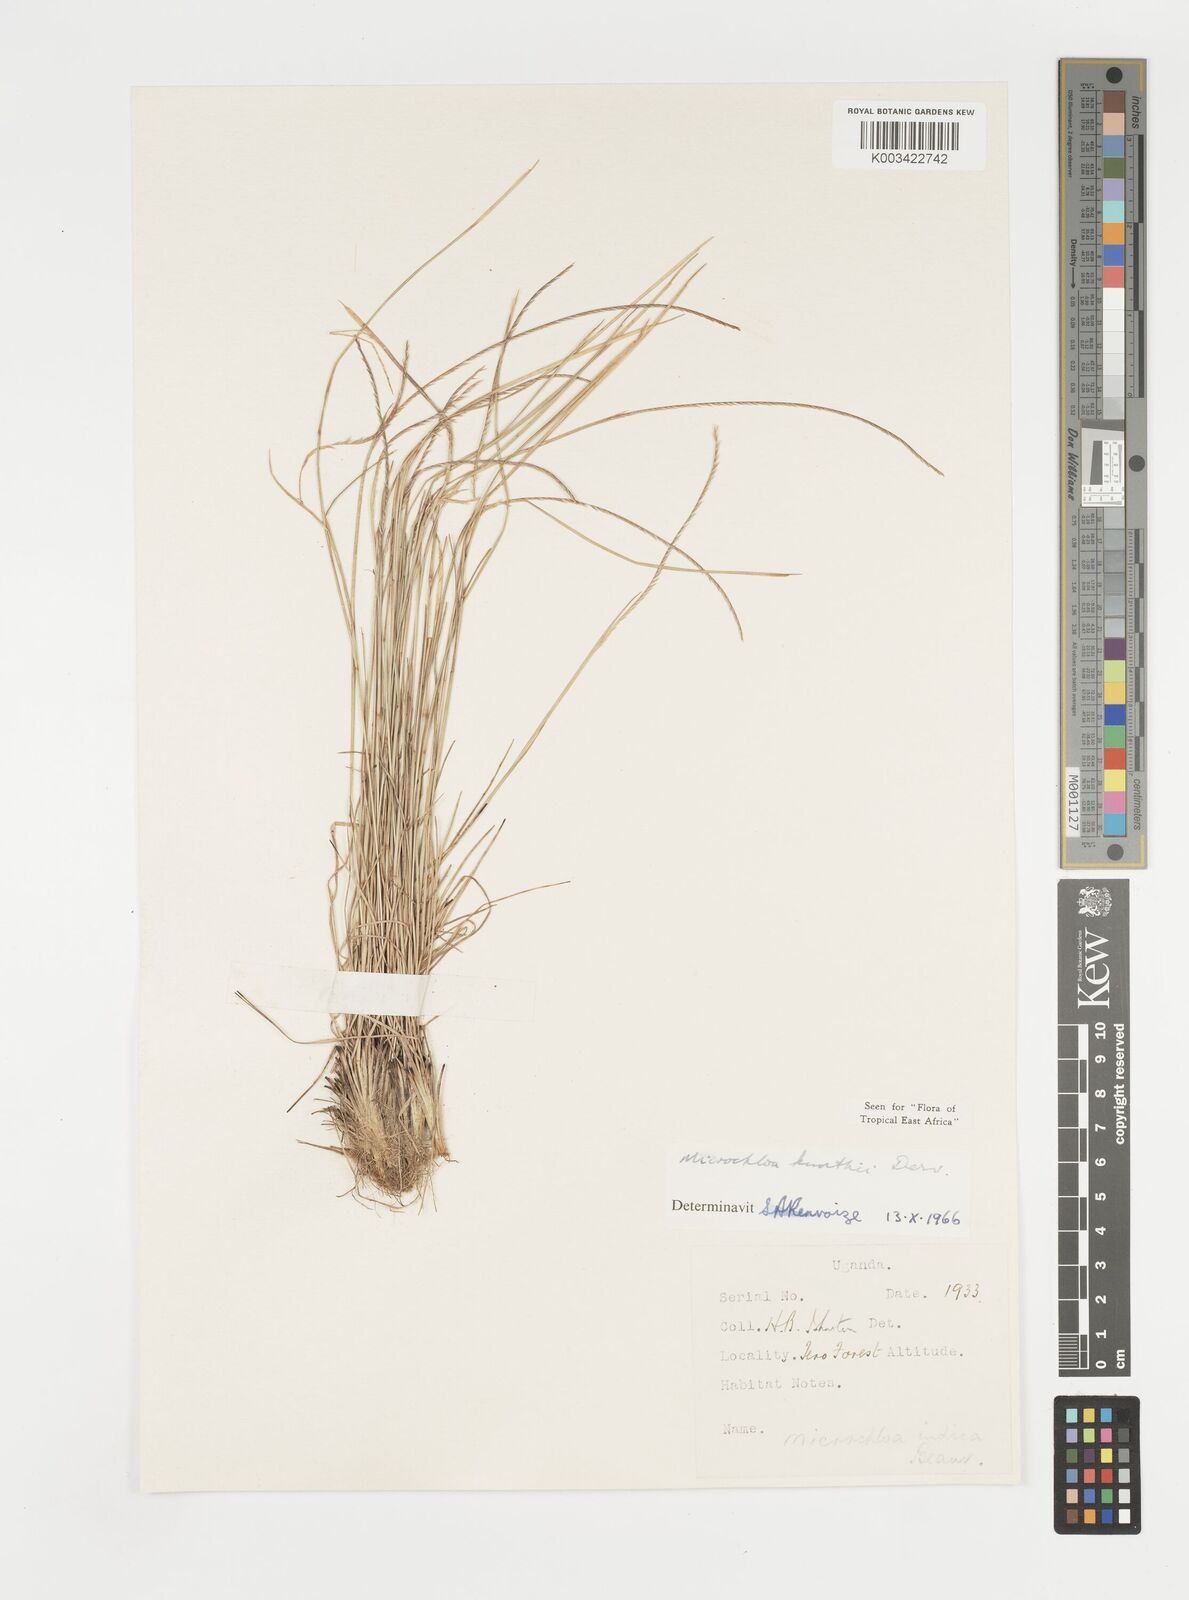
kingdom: Plantae
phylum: Tracheophyta
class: Liliopsida
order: Poales
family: Poaceae
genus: Microchloa
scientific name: Microchloa kunthii
